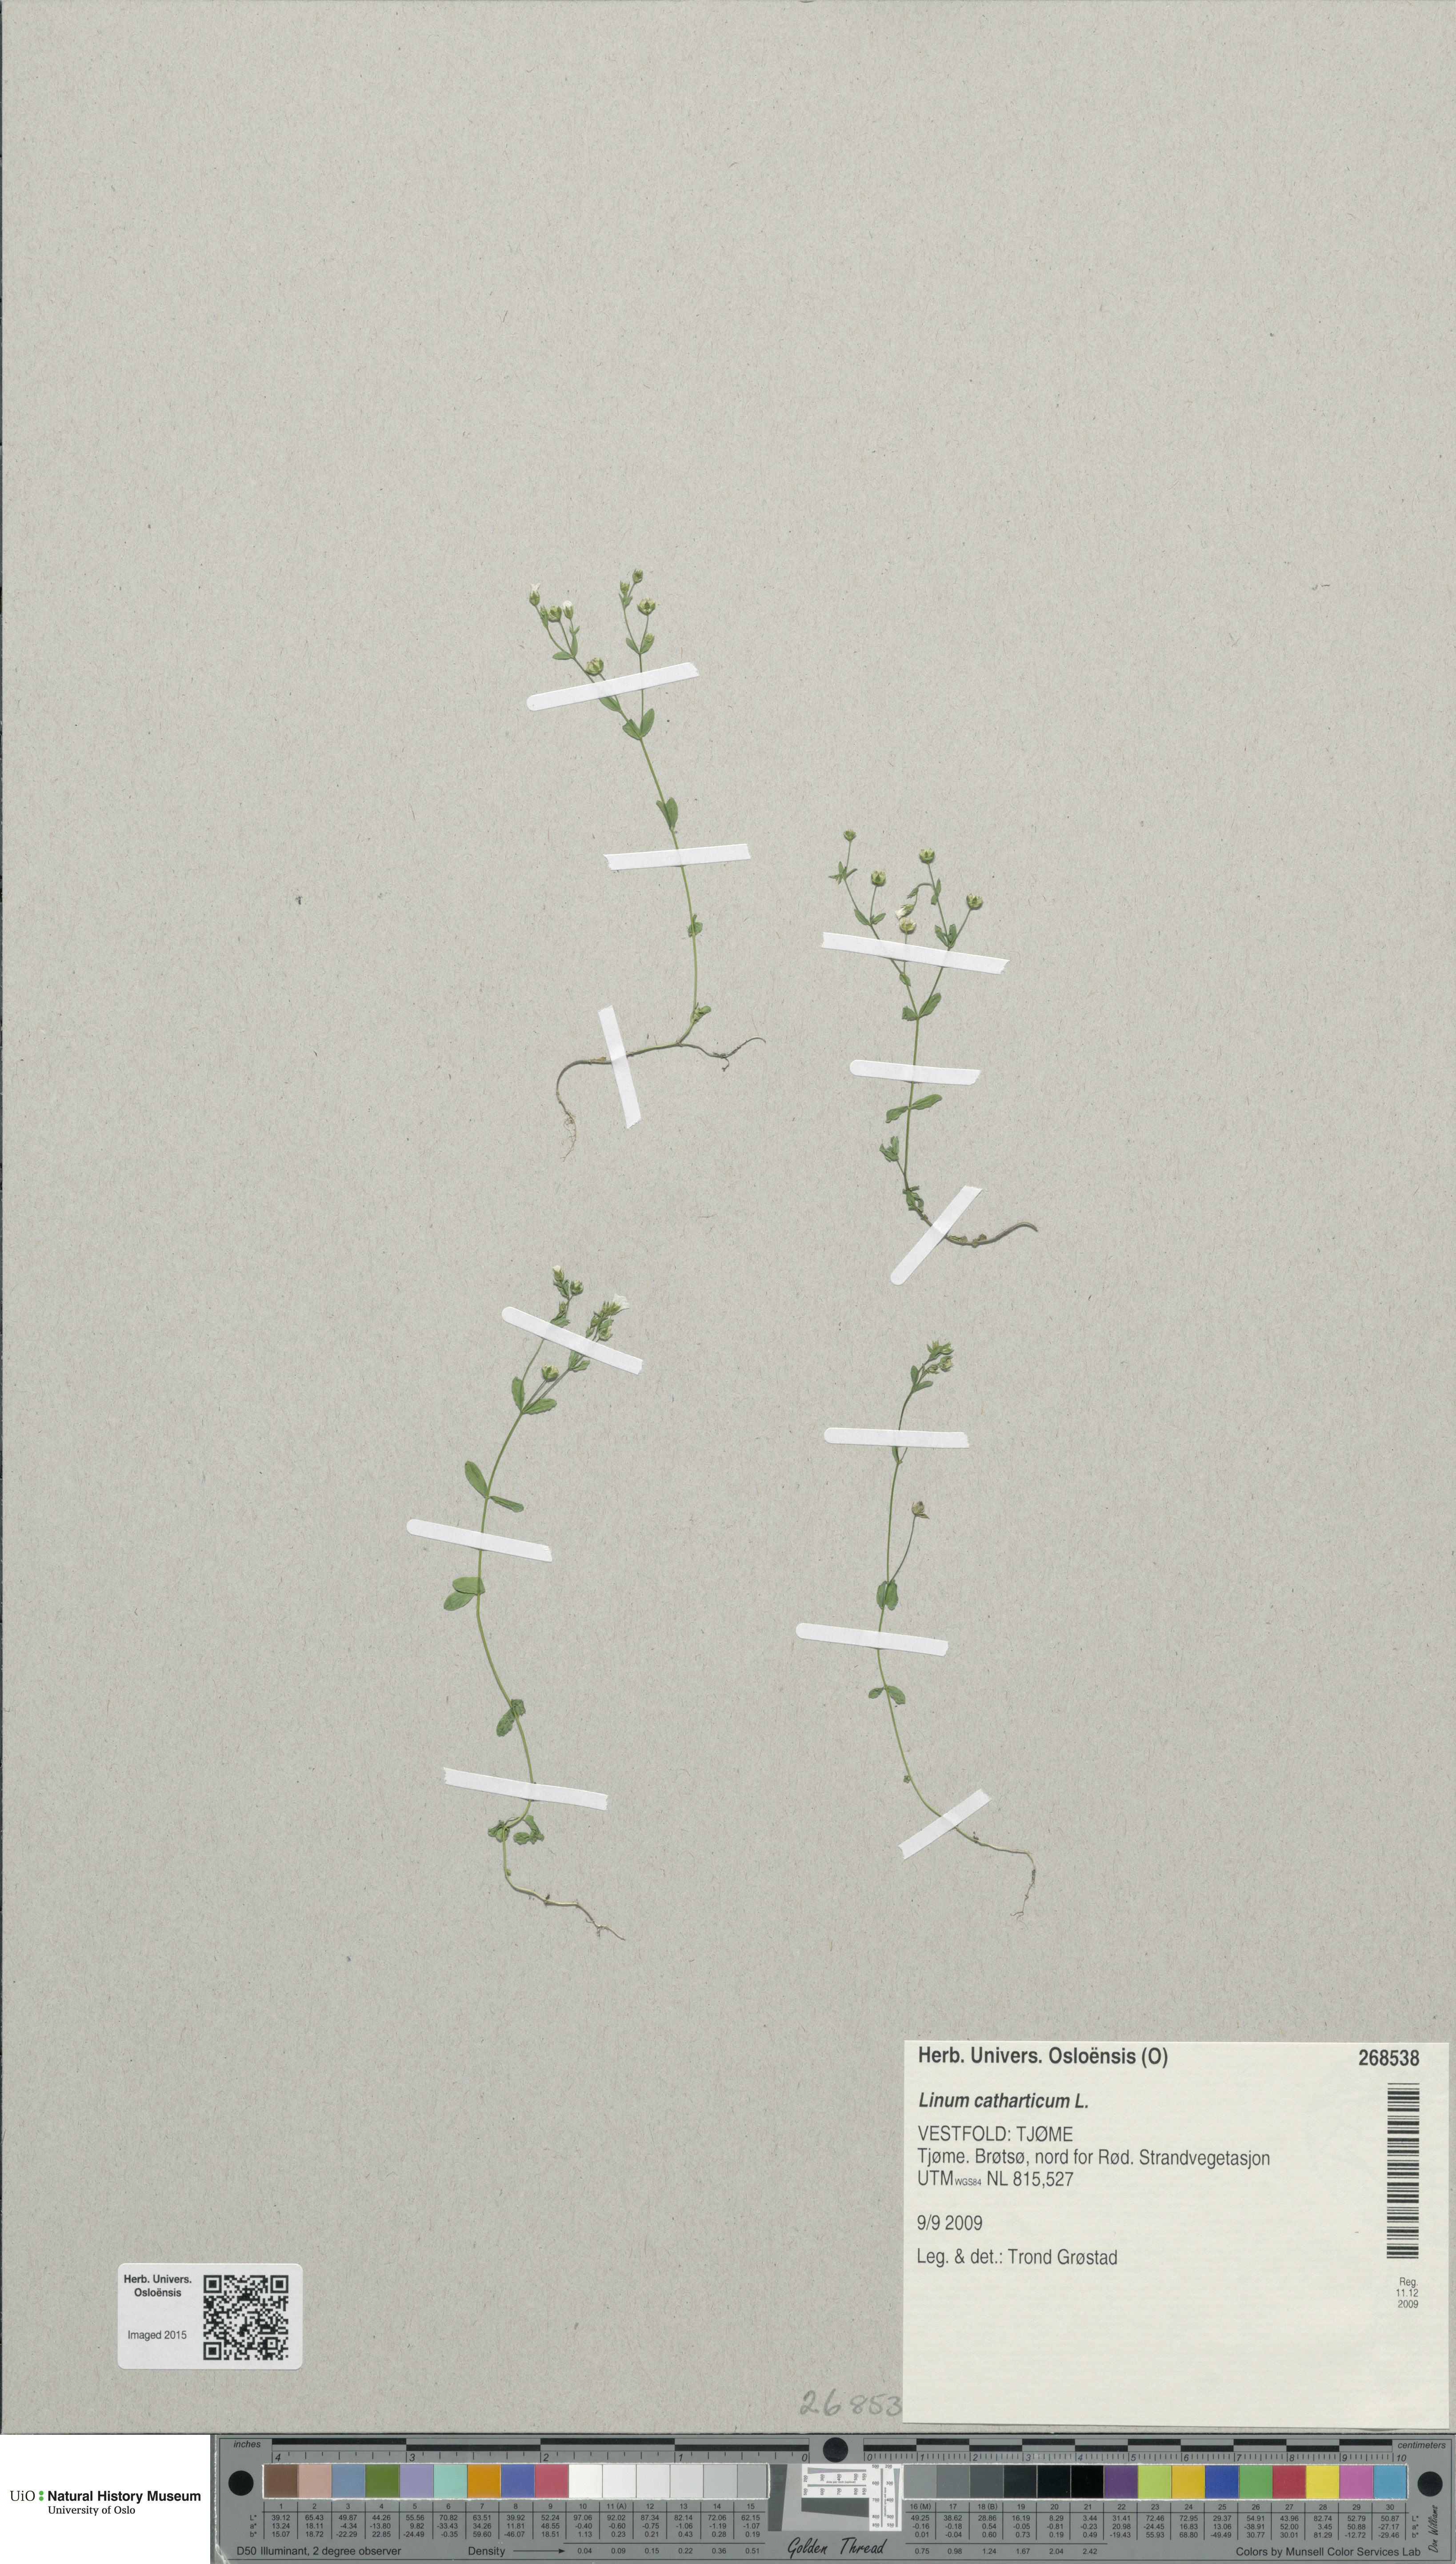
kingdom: Plantae
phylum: Tracheophyta
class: Magnoliopsida
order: Malpighiales
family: Linaceae
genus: Linum
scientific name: Linum catharticum
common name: Fairy flax
